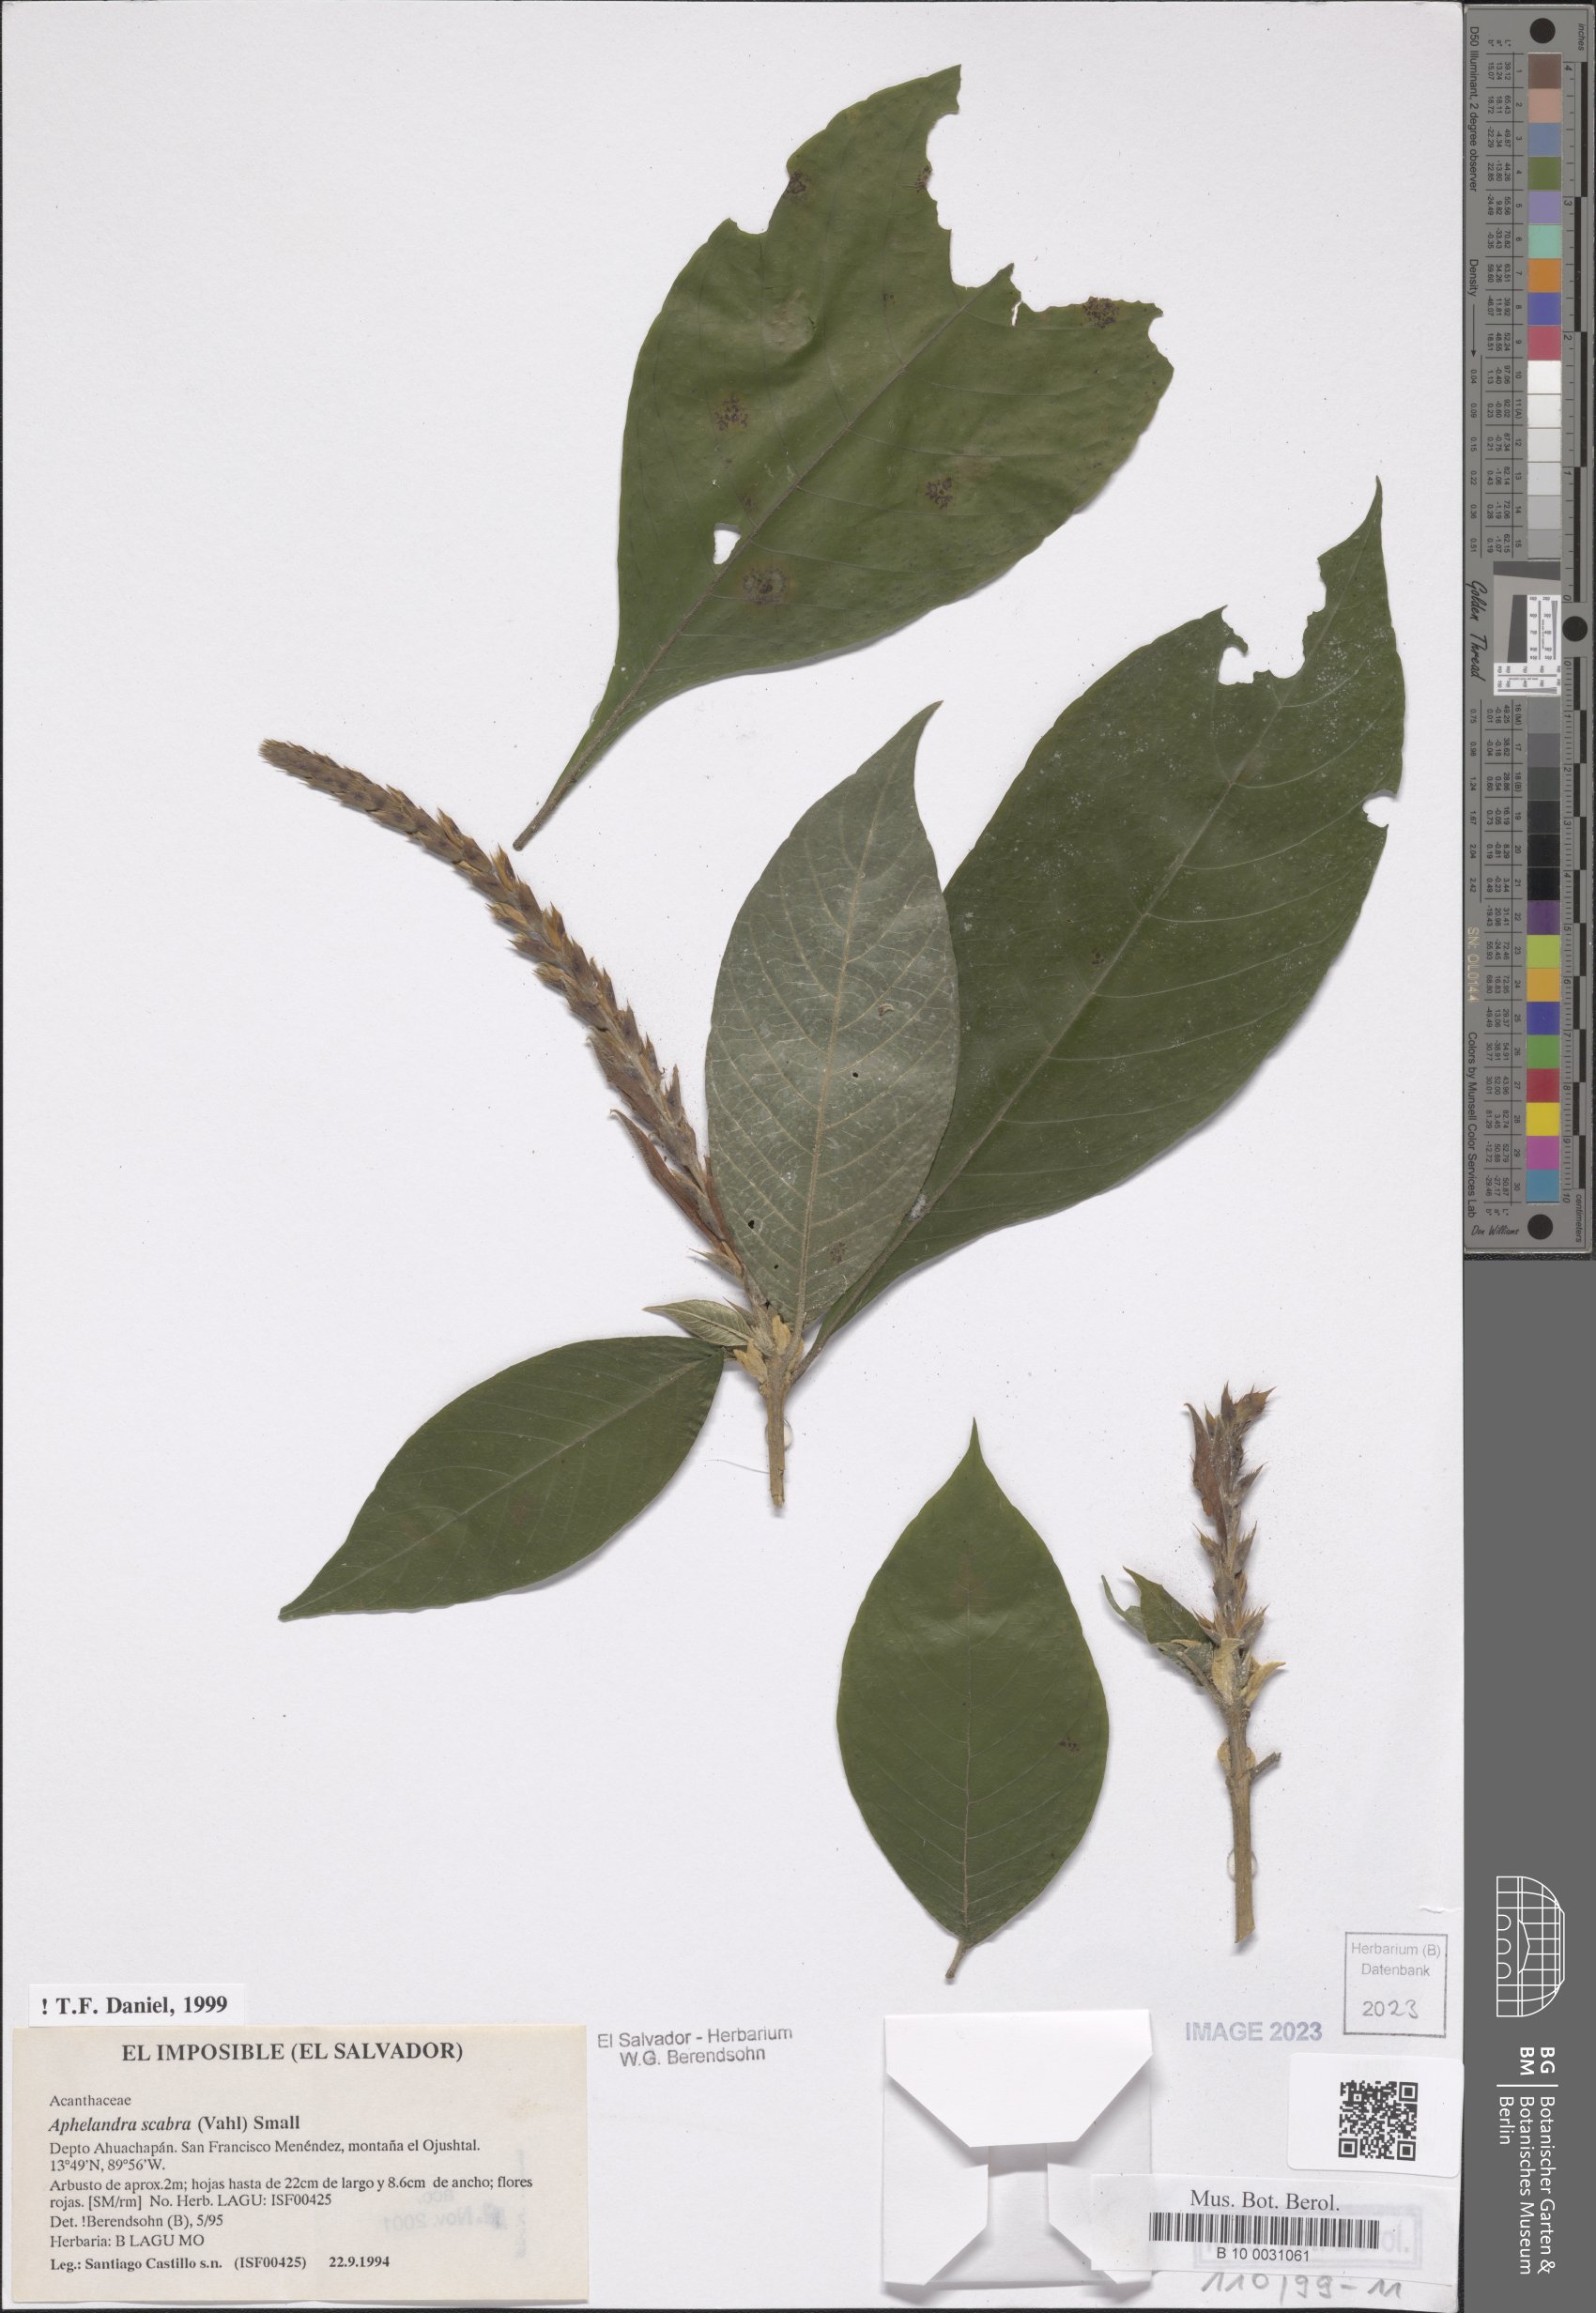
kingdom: Plantae
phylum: Tracheophyta
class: Magnoliopsida
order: Lamiales
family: Acanthaceae
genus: Aphelandra
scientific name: Aphelandra scabra
